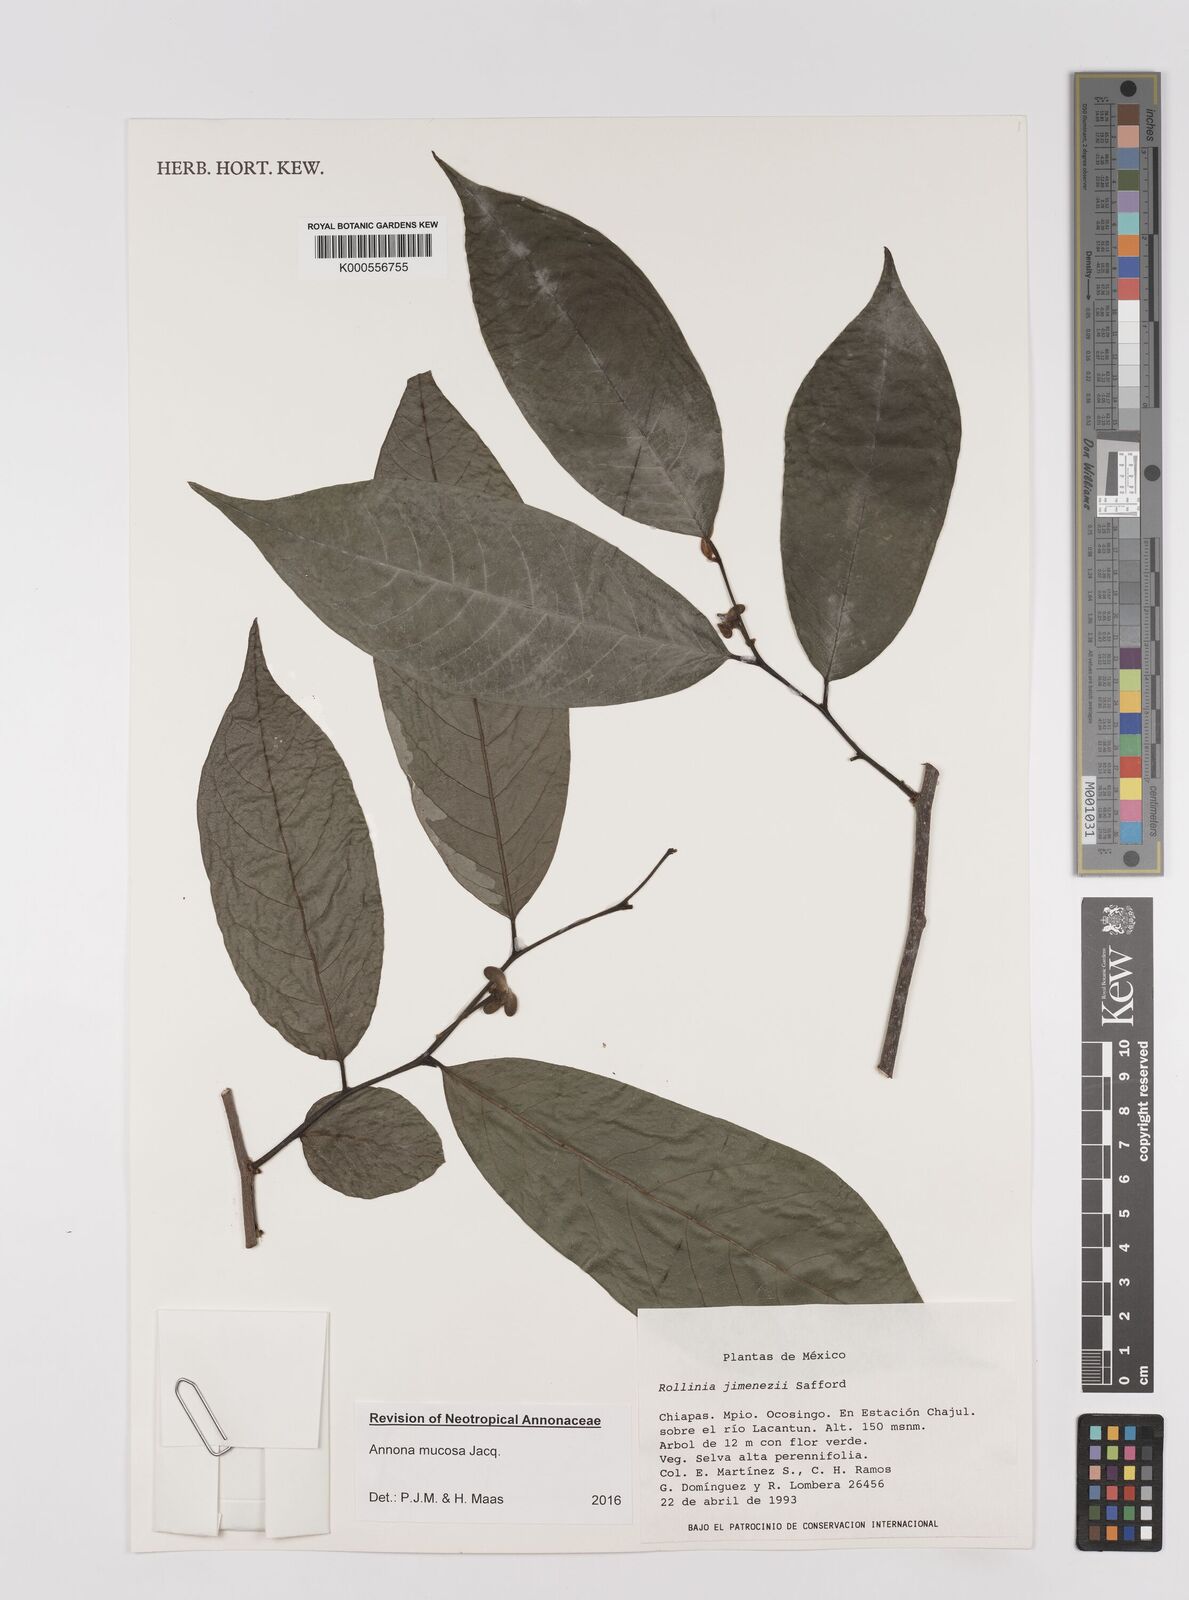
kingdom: Plantae
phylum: Tracheophyta
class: Magnoliopsida
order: Magnoliales
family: Annonaceae
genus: Annona
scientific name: Annona mucosa
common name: Sugar apple
